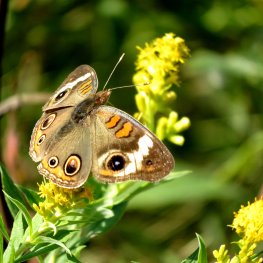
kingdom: Animalia
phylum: Arthropoda
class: Insecta
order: Lepidoptera
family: Nymphalidae
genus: Junonia
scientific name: Junonia coenia
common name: Common Buckeye
